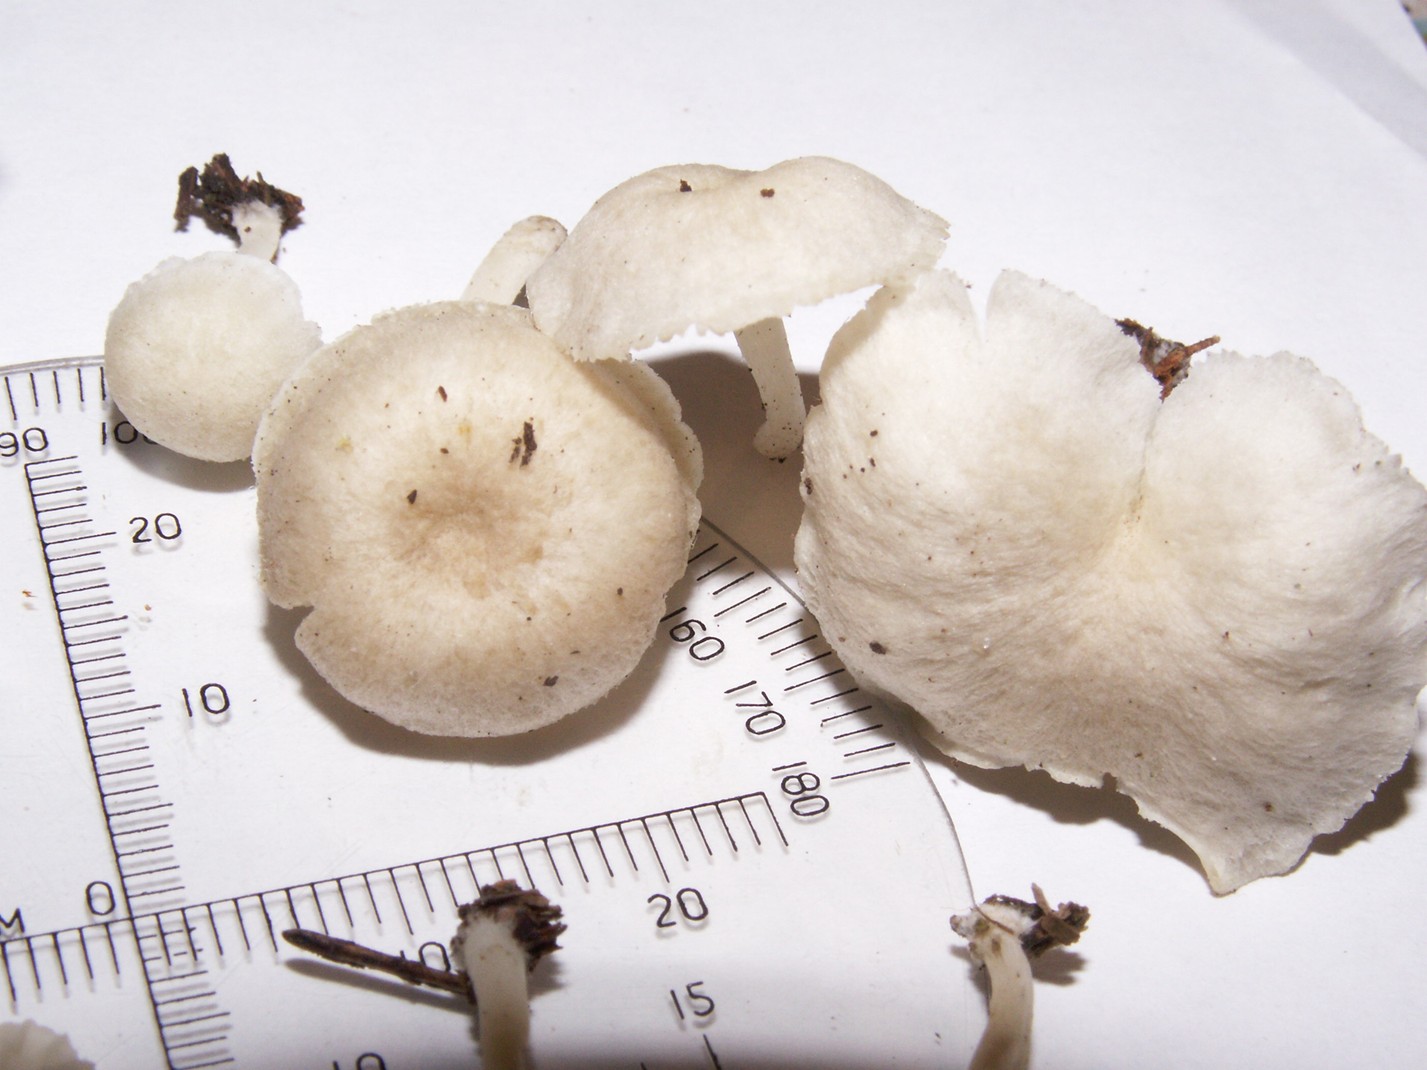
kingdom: Fungi
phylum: Basidiomycota
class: Agaricomycetes
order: Agaricales
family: Hygrophoraceae
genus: Chrysomphalina
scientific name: Chrysomphalina grossula
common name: stød-gyldenblad
